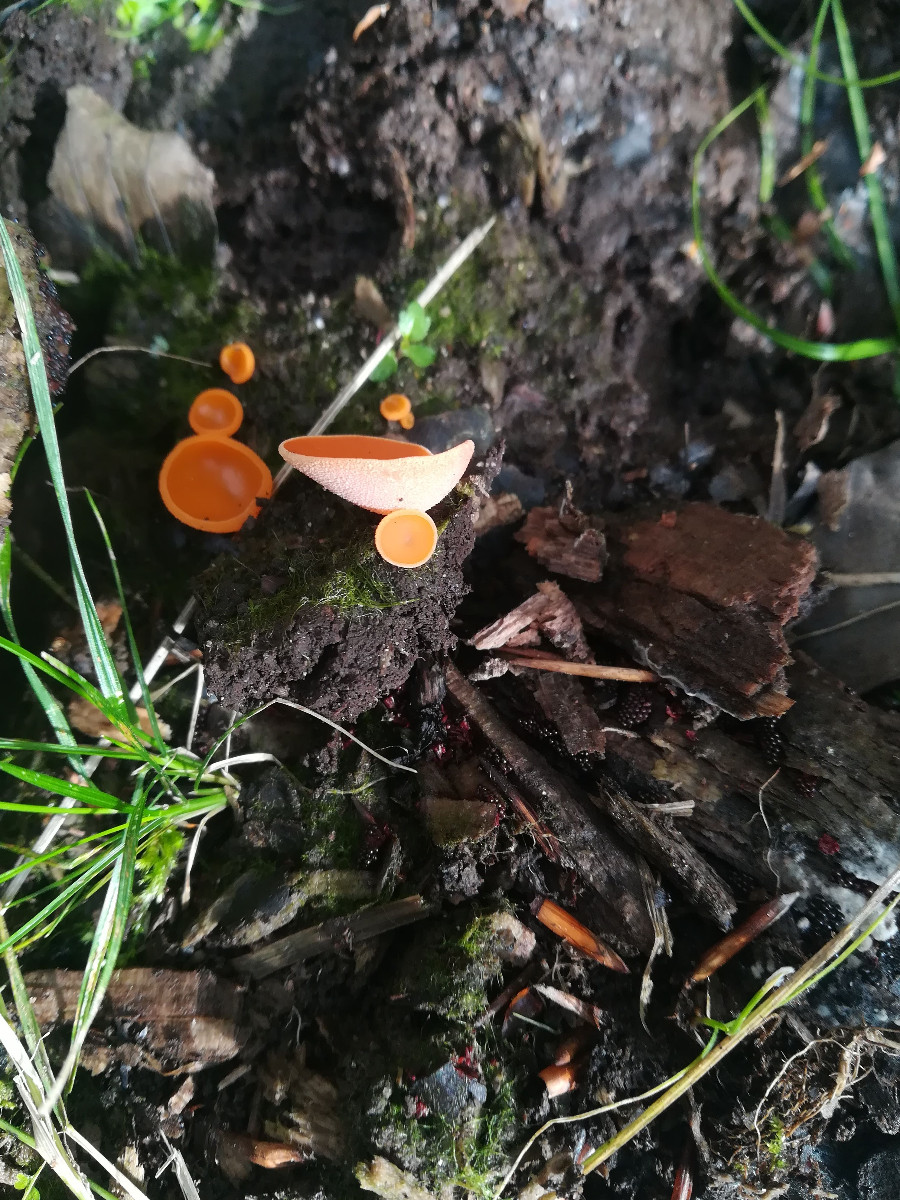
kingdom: Fungi
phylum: Ascomycota
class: Pezizomycetes
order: Pezizales
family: Pyronemataceae
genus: Aleuria
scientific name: Aleuria aurantia
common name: almindelig orangebæger
